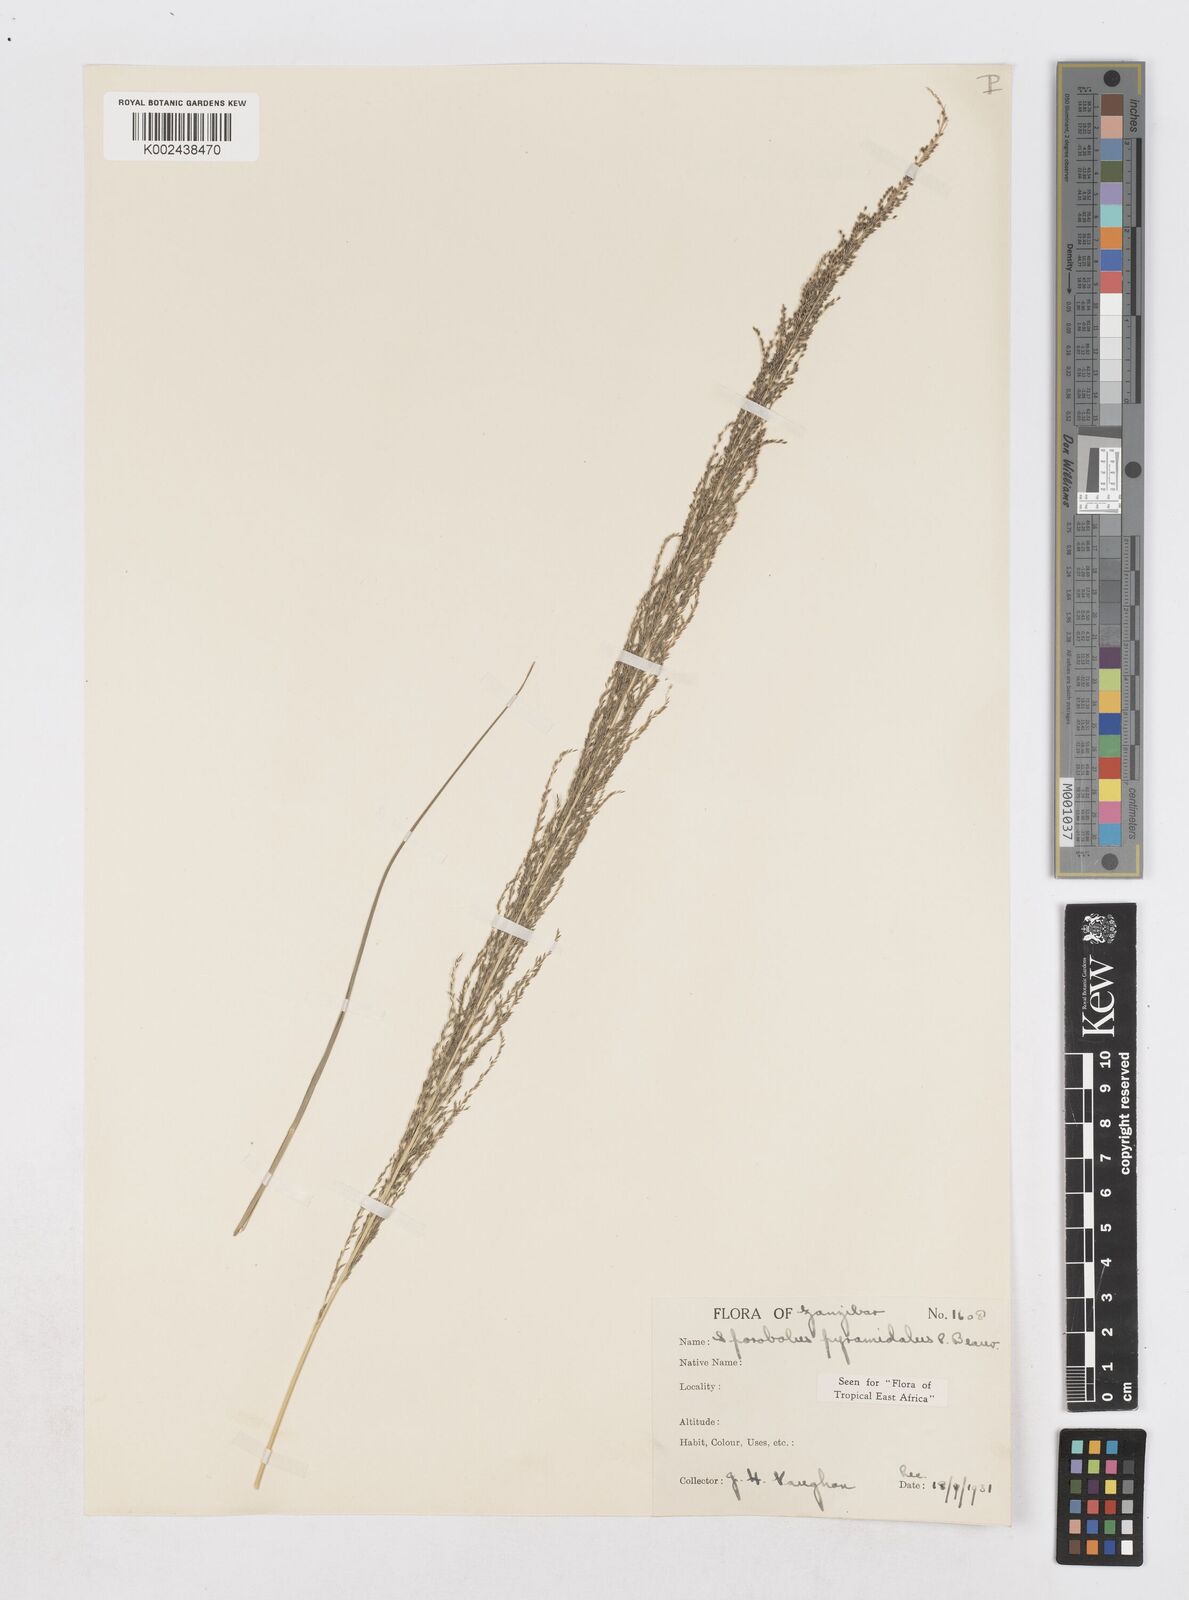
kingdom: Plantae
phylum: Tracheophyta
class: Liliopsida
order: Poales
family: Poaceae
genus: Sporobolus
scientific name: Sporobolus pyramidalis
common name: West indian dropseed
